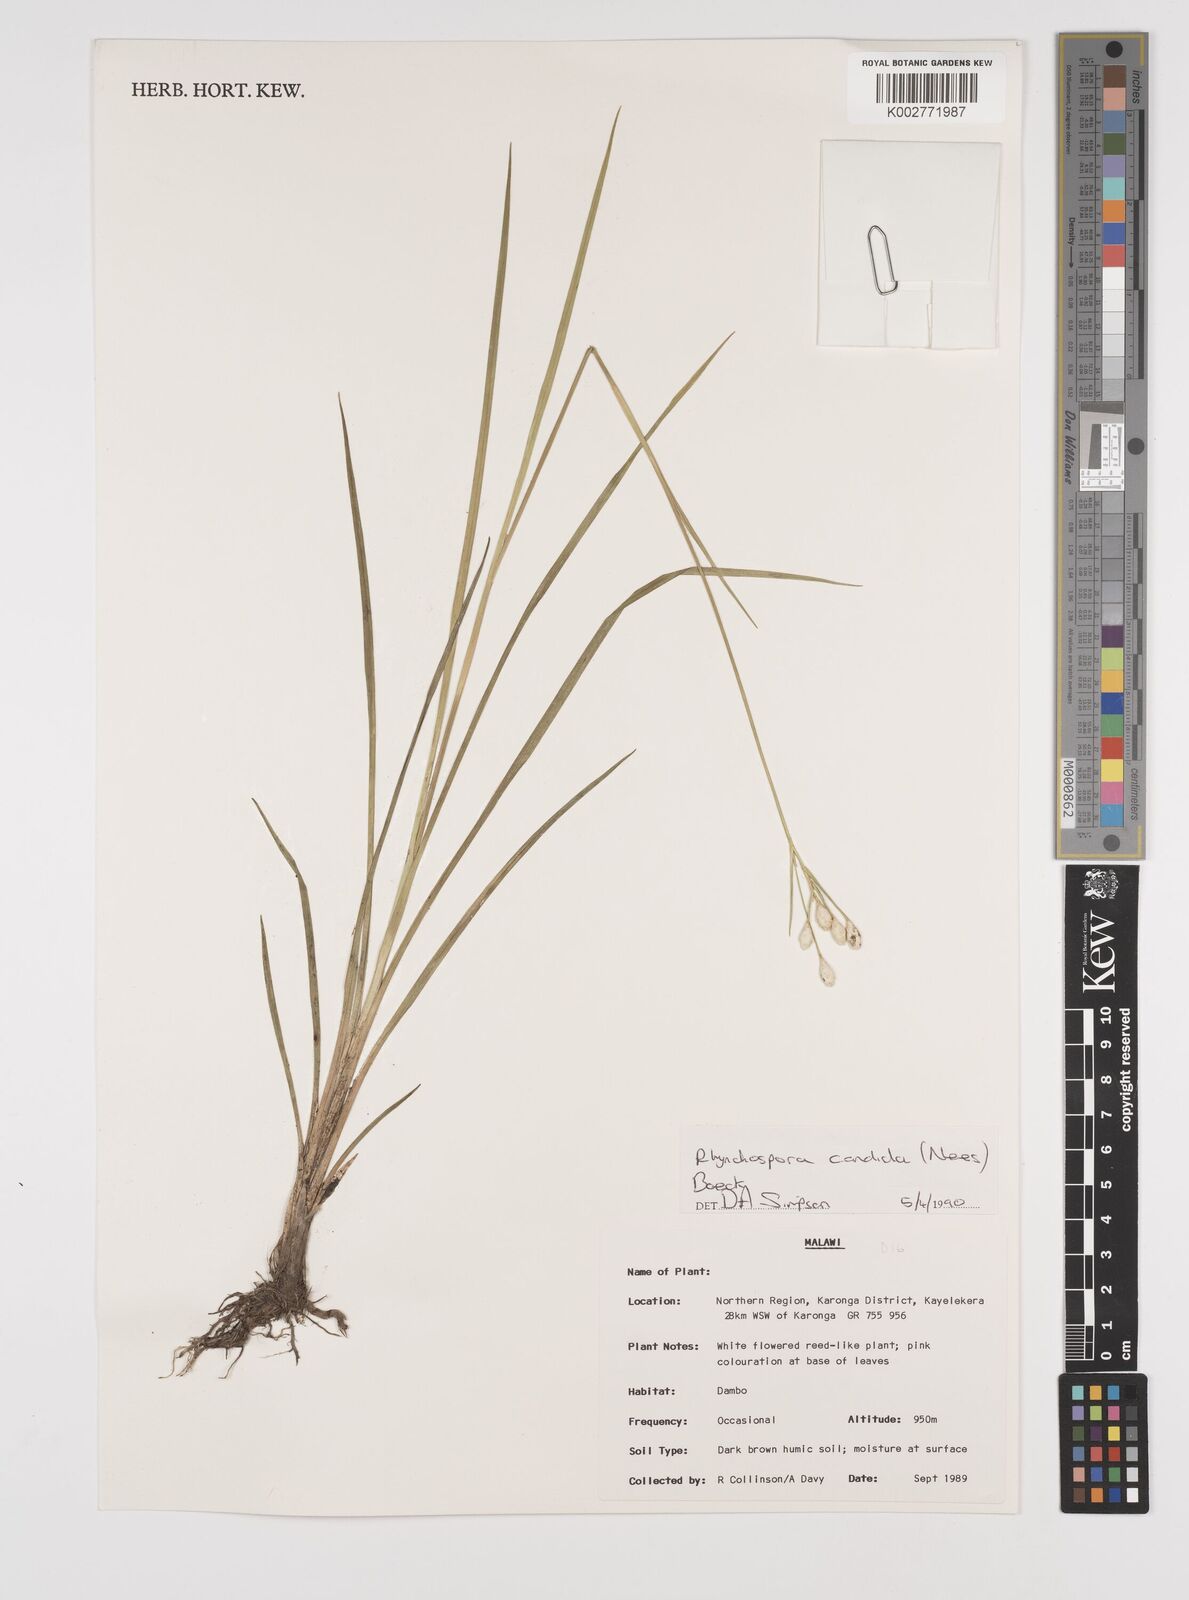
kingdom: Plantae
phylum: Tracheophyta
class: Liliopsida
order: Poales
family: Cyperaceae
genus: Rhynchospora
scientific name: Rhynchospora candida
